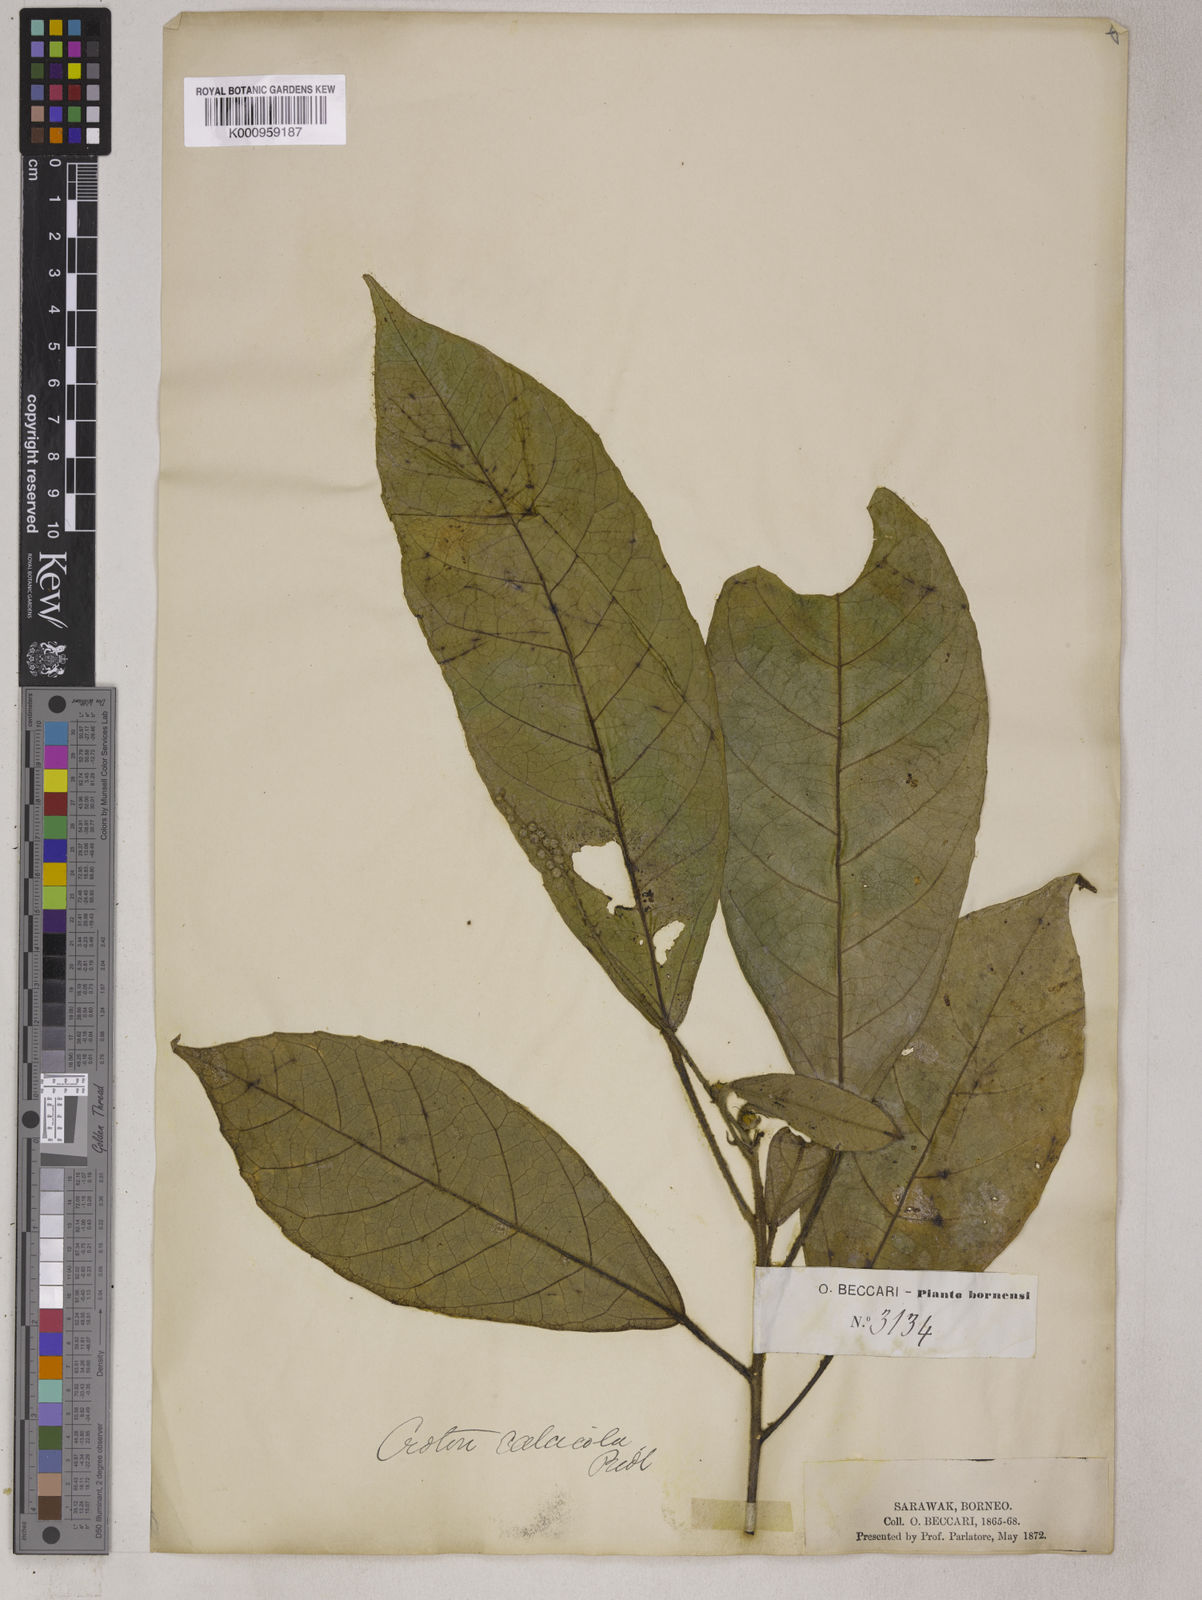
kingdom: Plantae
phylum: Tracheophyta
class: Magnoliopsida
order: Malpighiales
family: Euphorbiaceae
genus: Croton
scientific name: Croton erythrostachys
